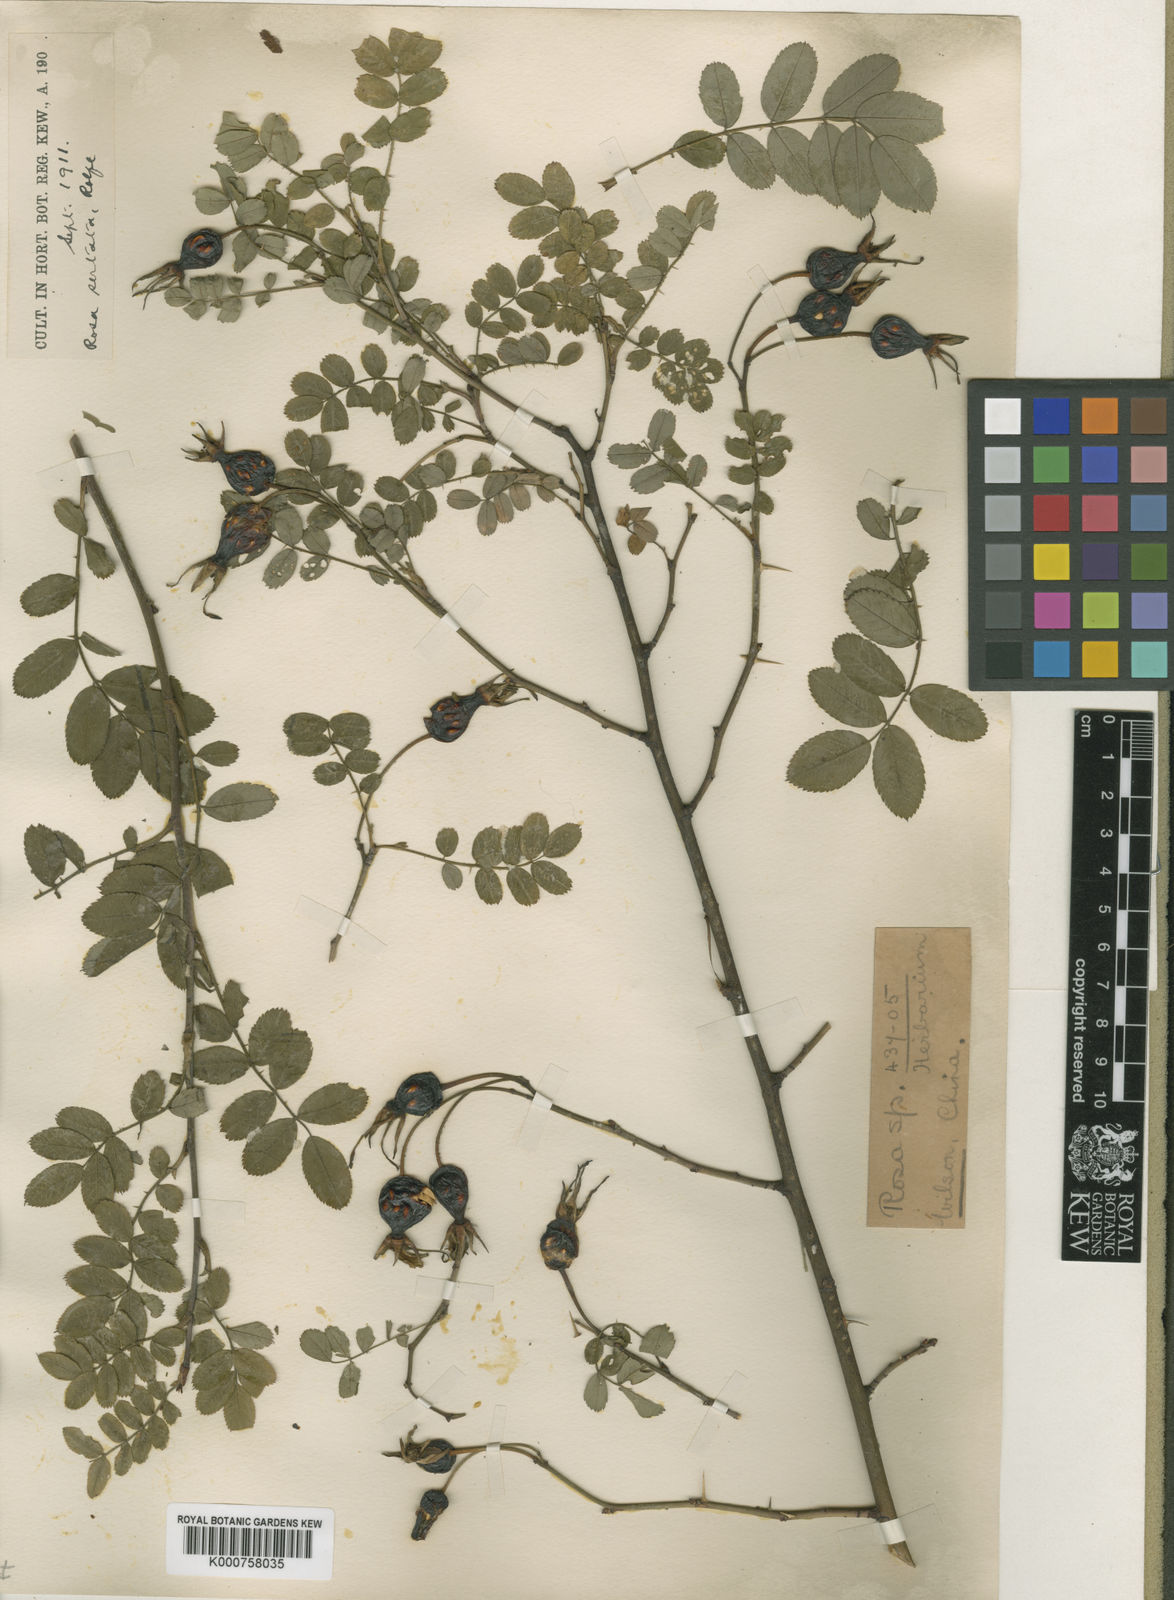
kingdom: Plantae
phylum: Tracheophyta
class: Magnoliopsida
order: Rosales
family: Rosaceae
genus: Rosa
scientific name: Rosa sertata
